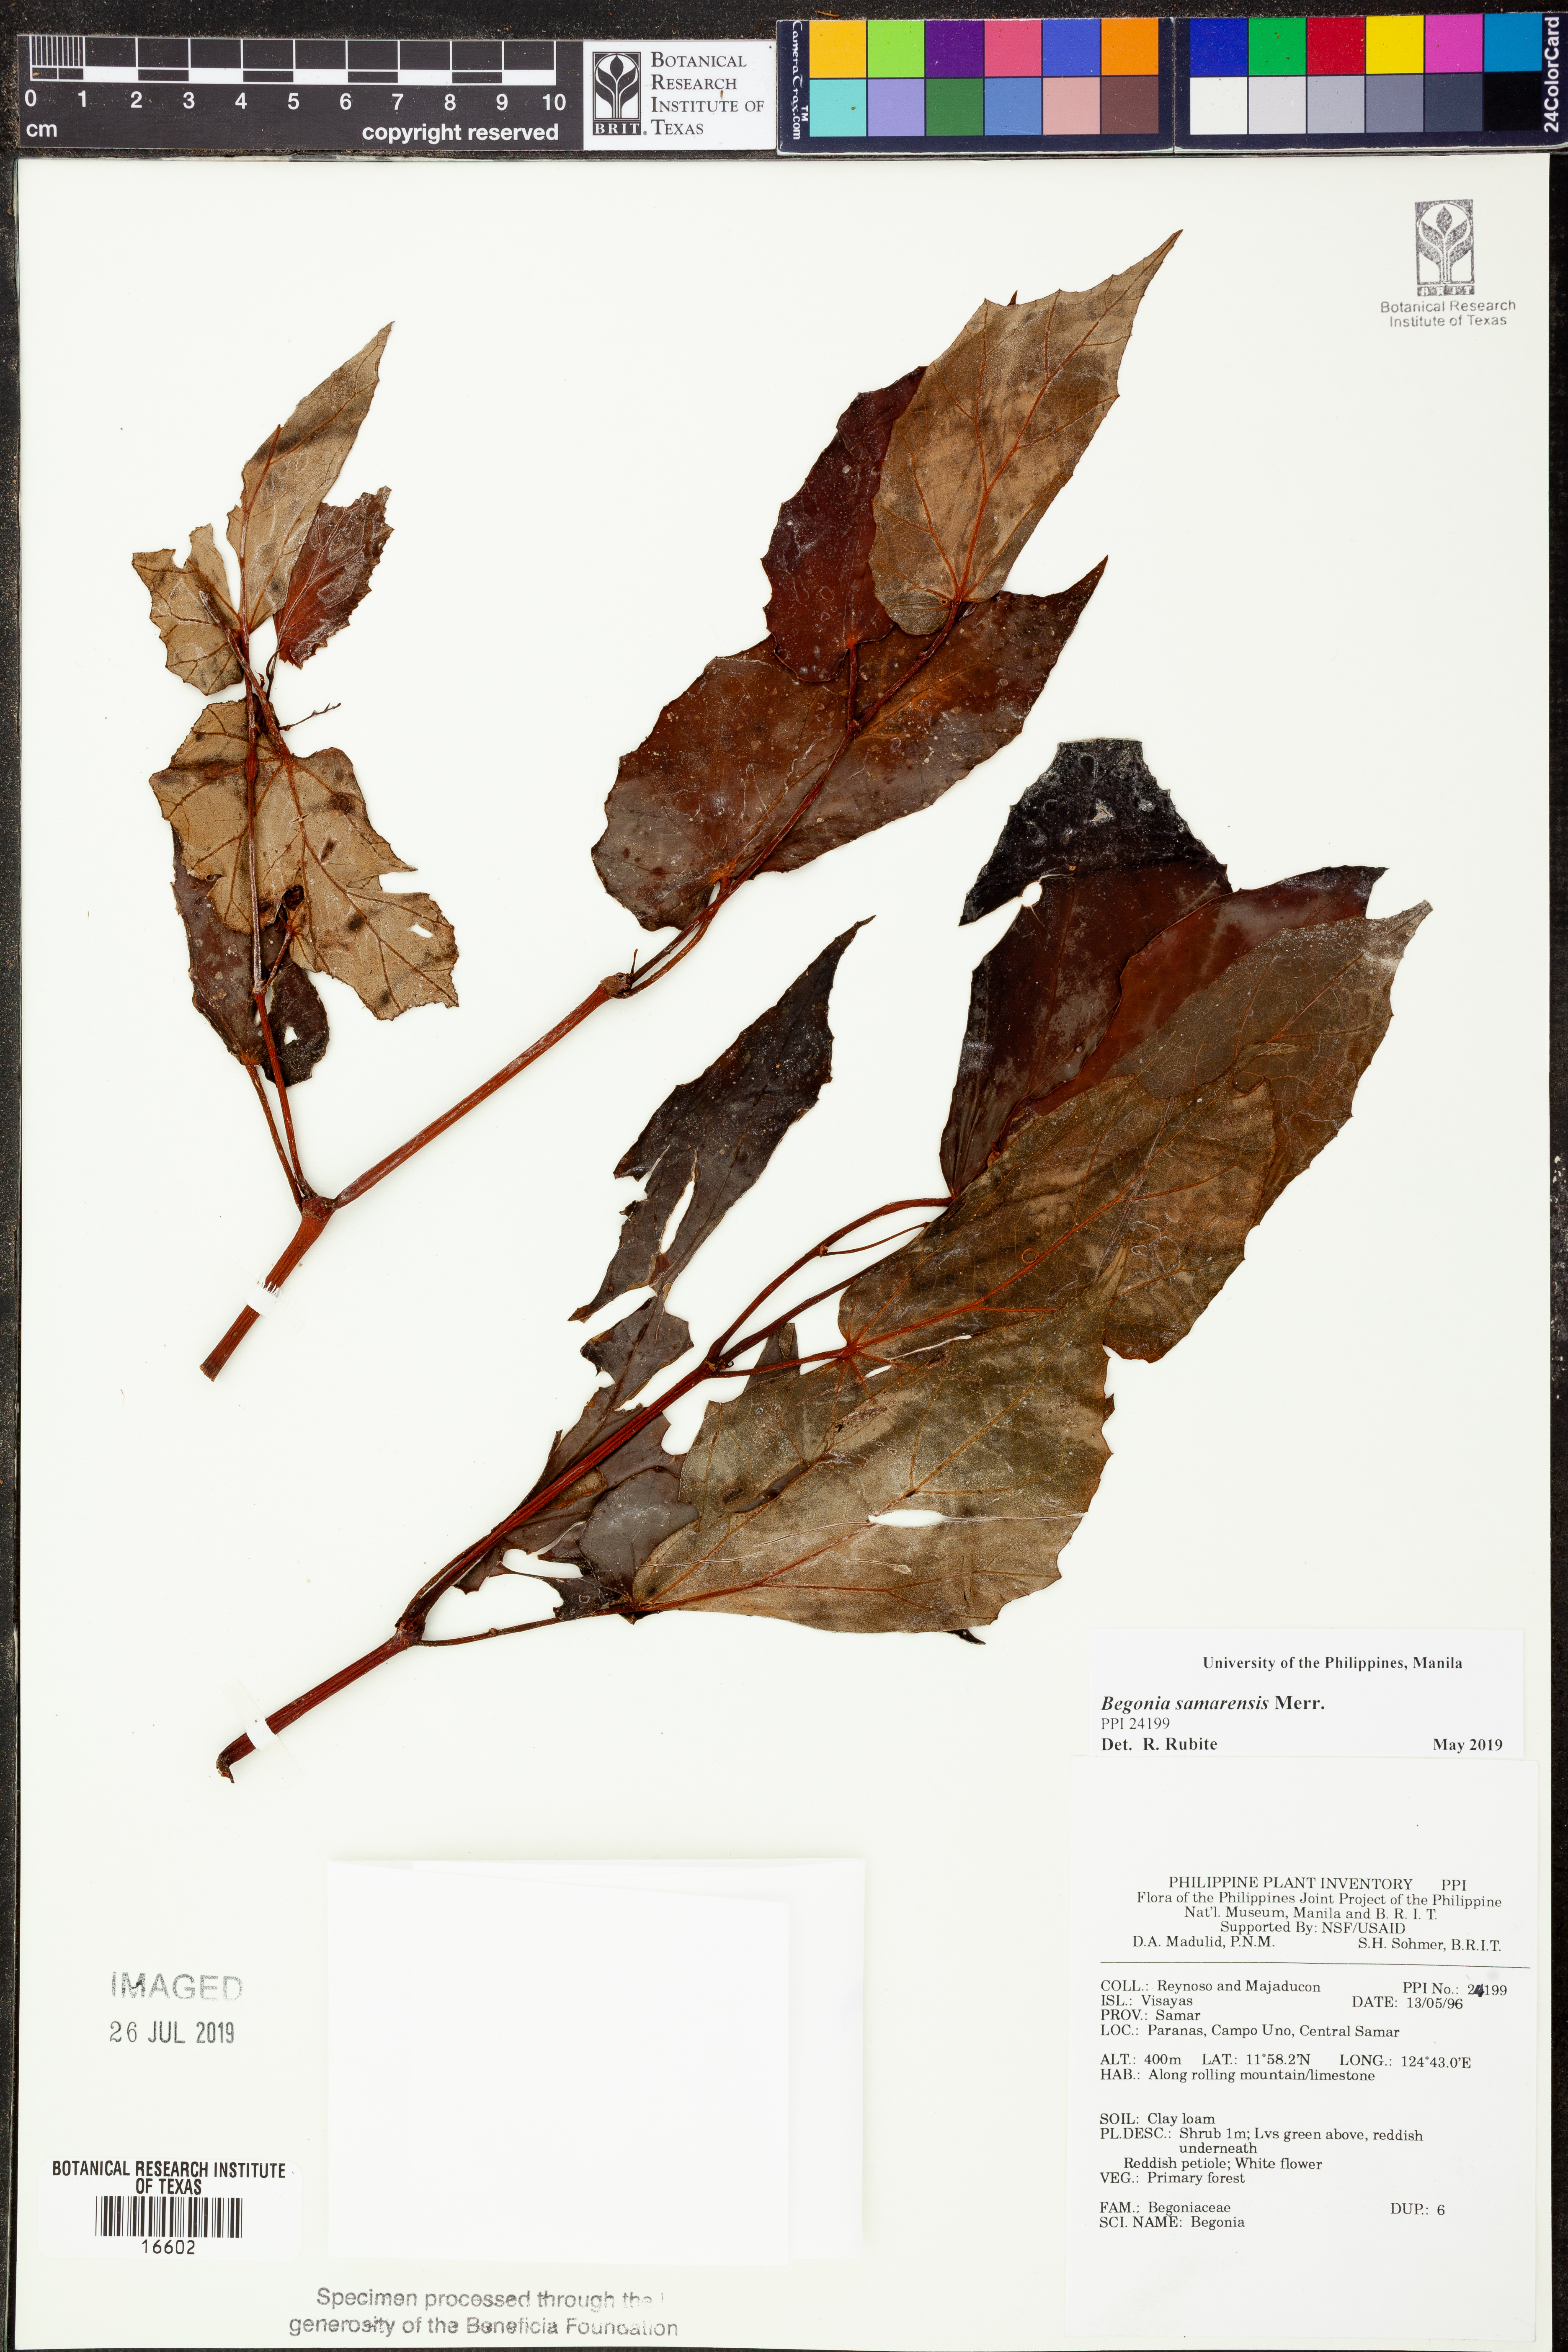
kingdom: Plantae
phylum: Tracheophyta
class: Magnoliopsida
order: Cucurbitales
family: Begoniaceae
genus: Begonia
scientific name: Begonia samarensis
